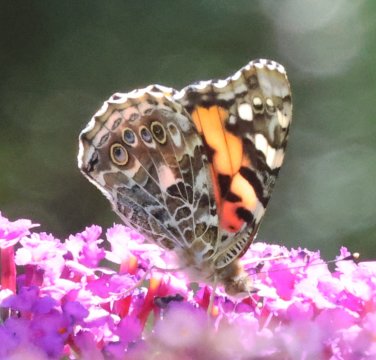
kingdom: Animalia
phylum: Arthropoda
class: Insecta
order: Lepidoptera
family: Nymphalidae
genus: Vanessa
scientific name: Vanessa cardui
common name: Painted Lady
